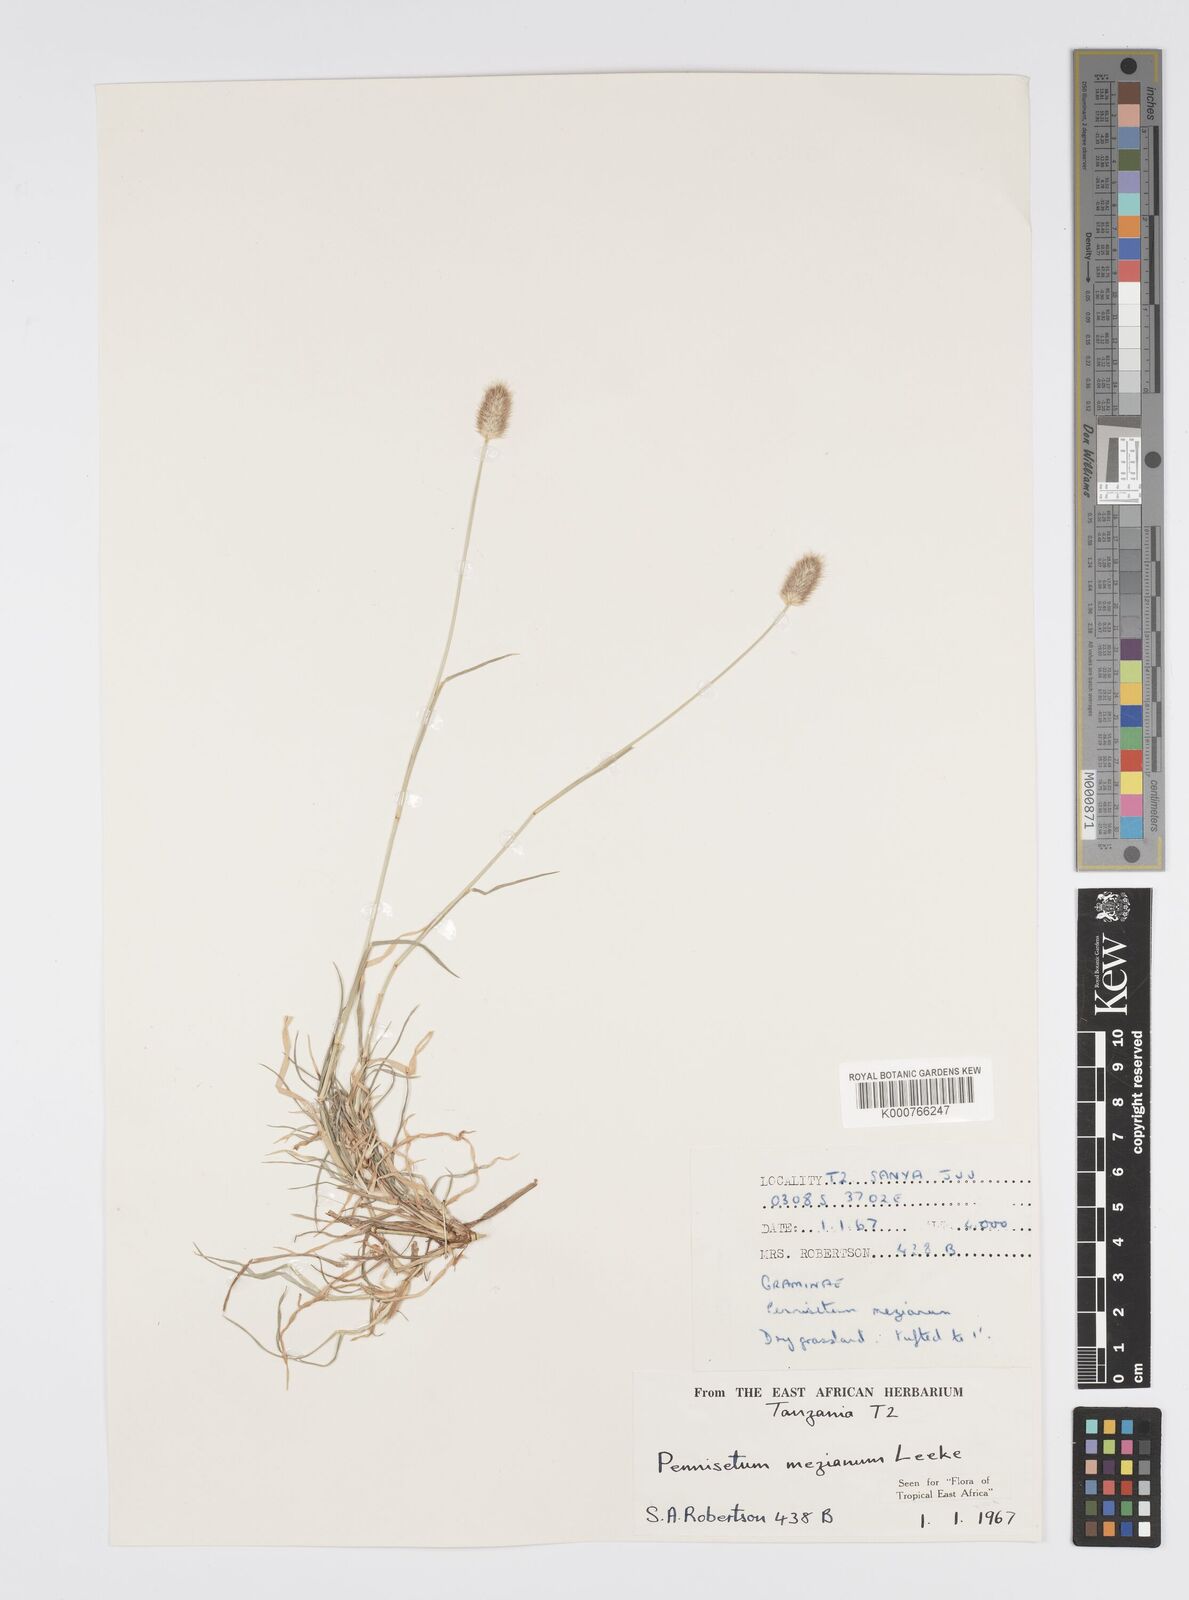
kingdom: Plantae
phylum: Tracheophyta
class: Liliopsida
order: Poales
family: Poaceae
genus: Cenchrus
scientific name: Cenchrus mezianus
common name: Bamboo grass
